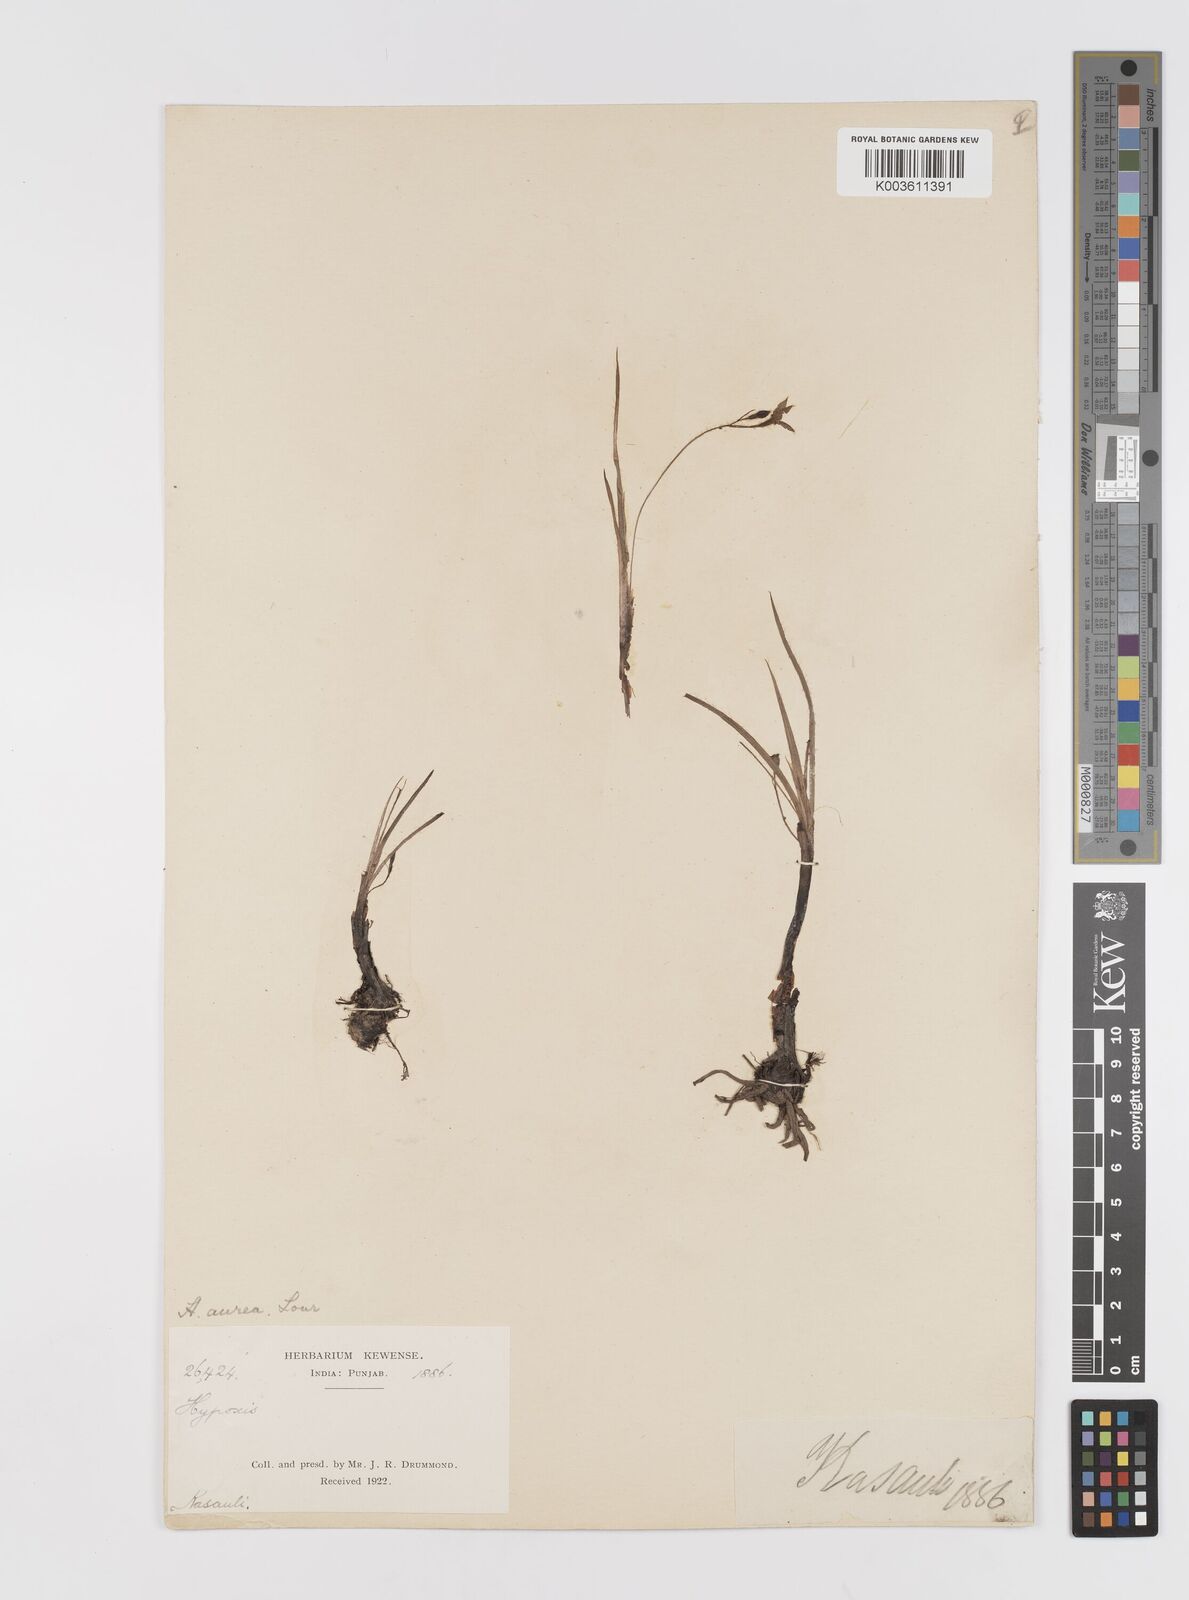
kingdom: Plantae
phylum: Tracheophyta
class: Liliopsida
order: Asparagales
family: Hypoxidaceae
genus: Hypoxis
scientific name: Hypoxis aurea
